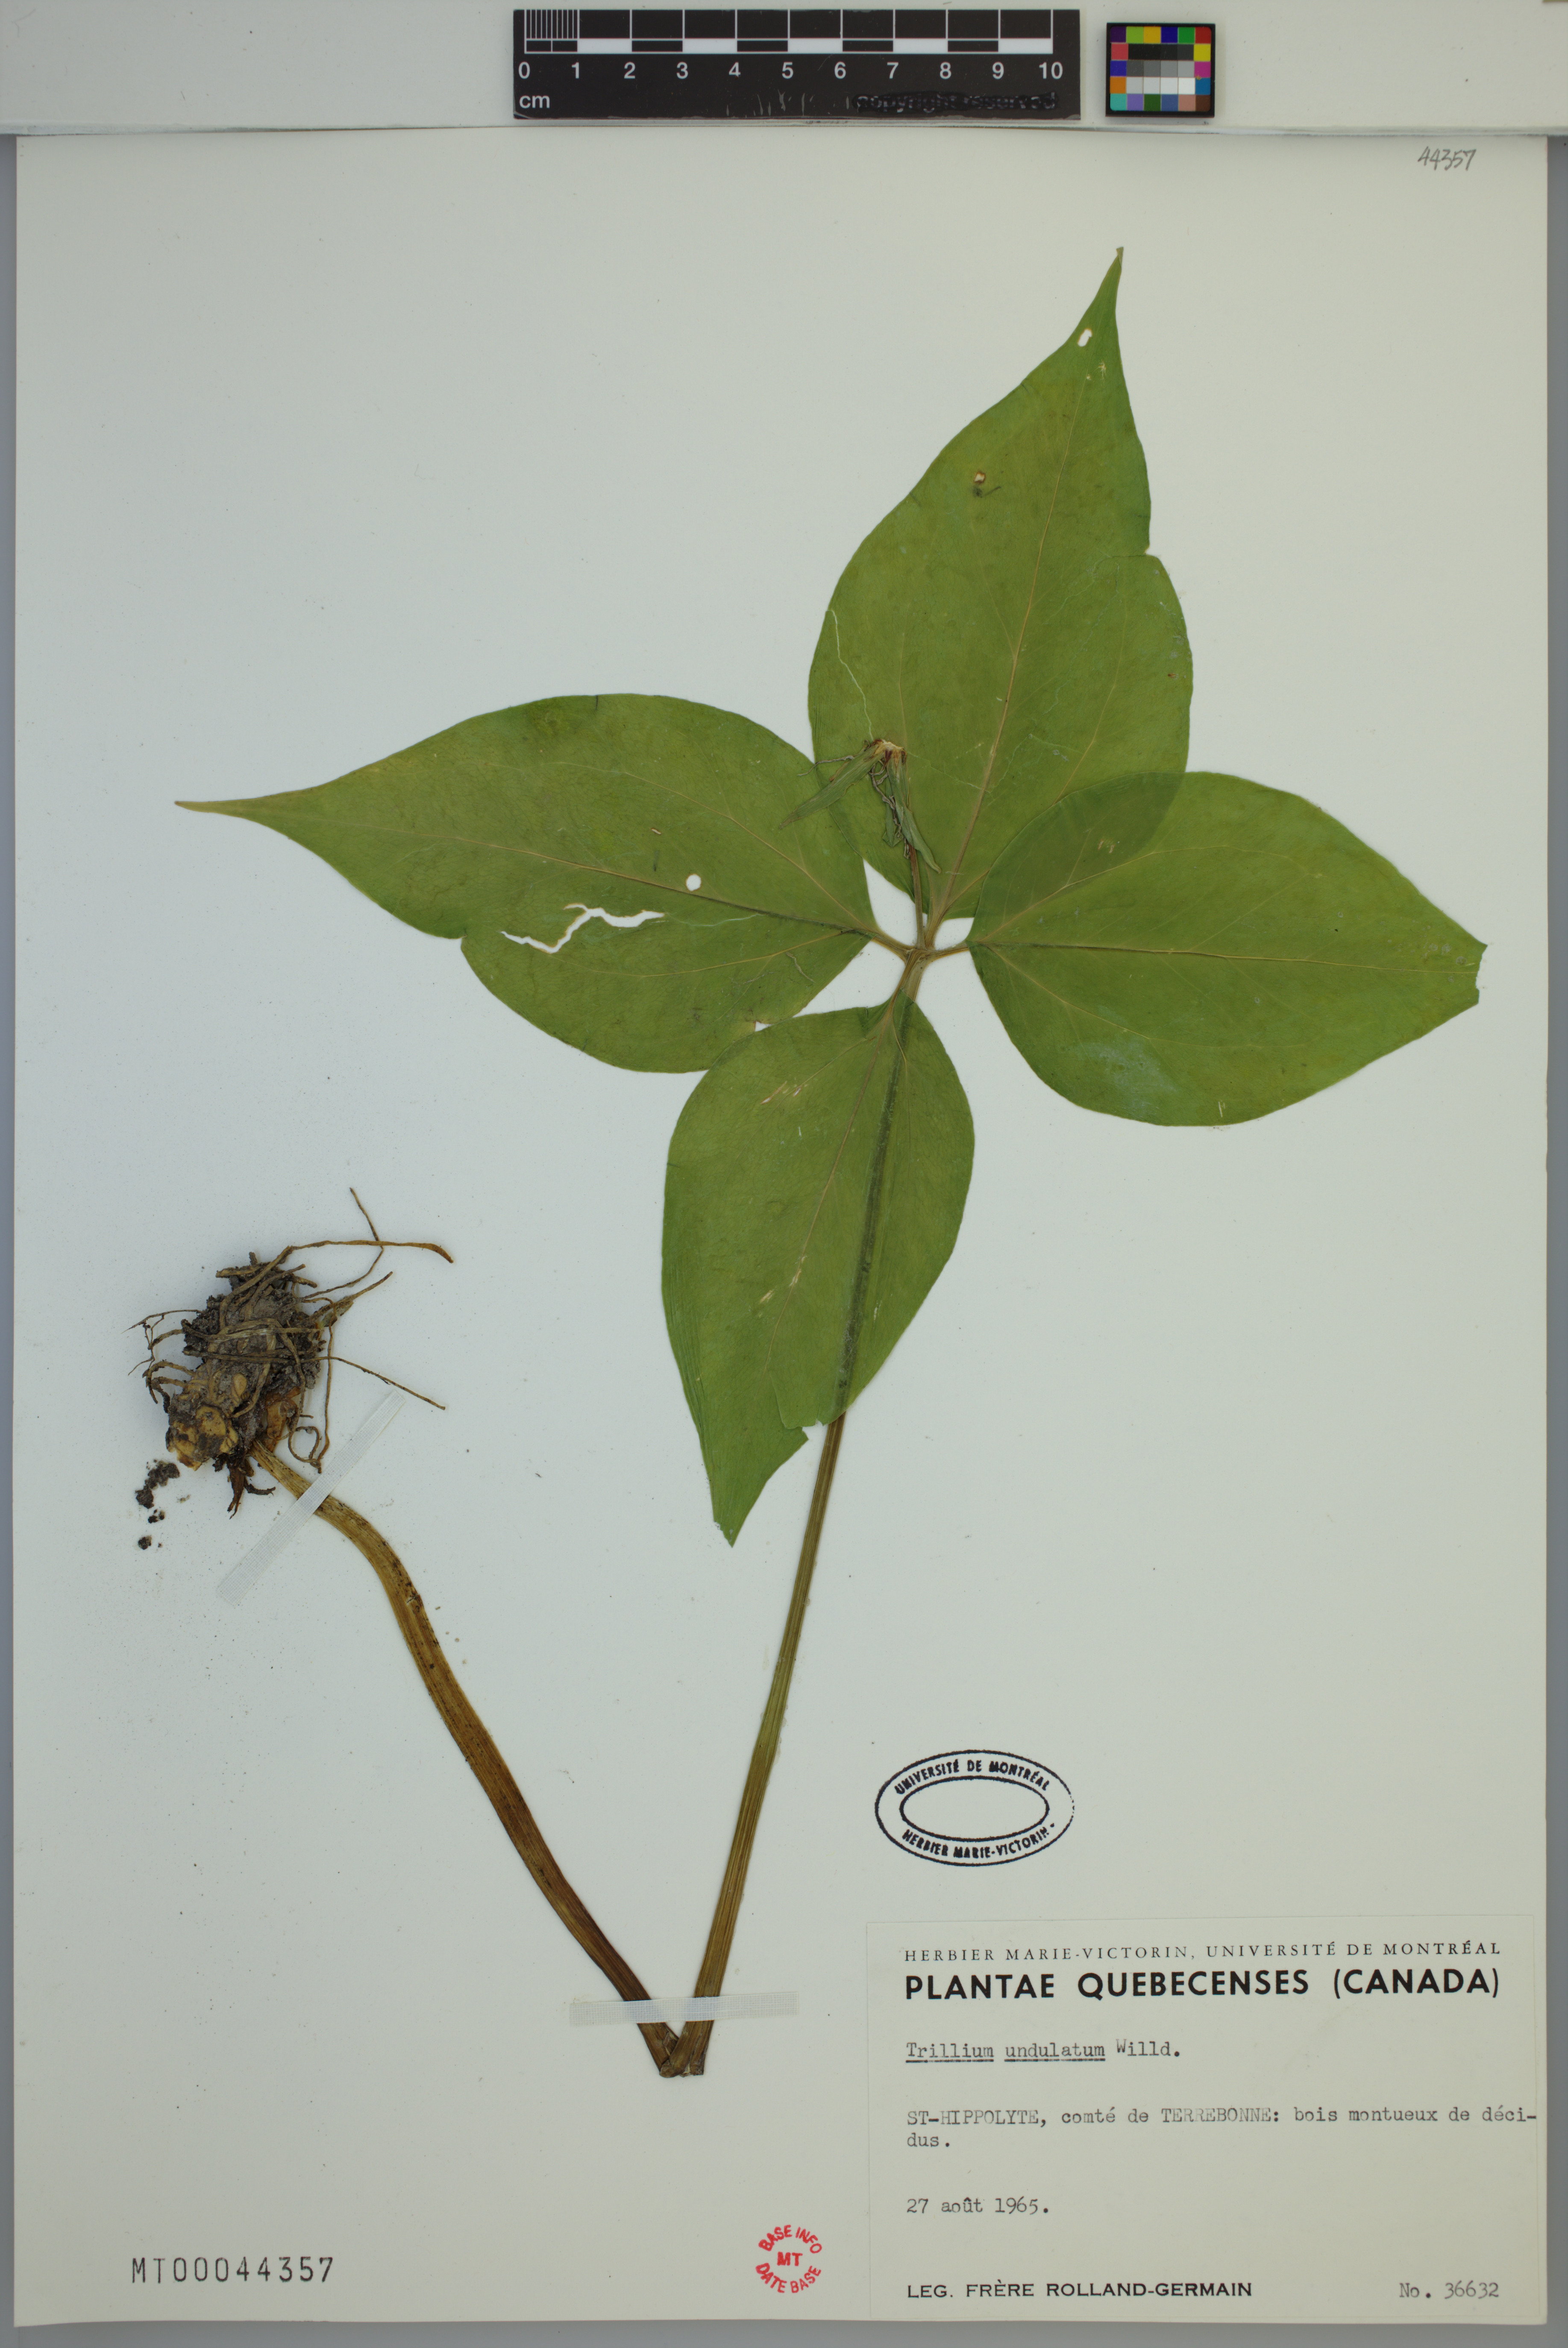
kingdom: Plantae
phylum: Tracheophyta
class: Liliopsida
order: Liliales
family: Melanthiaceae
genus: Trillium
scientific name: Trillium undulatum
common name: Paint trillium
